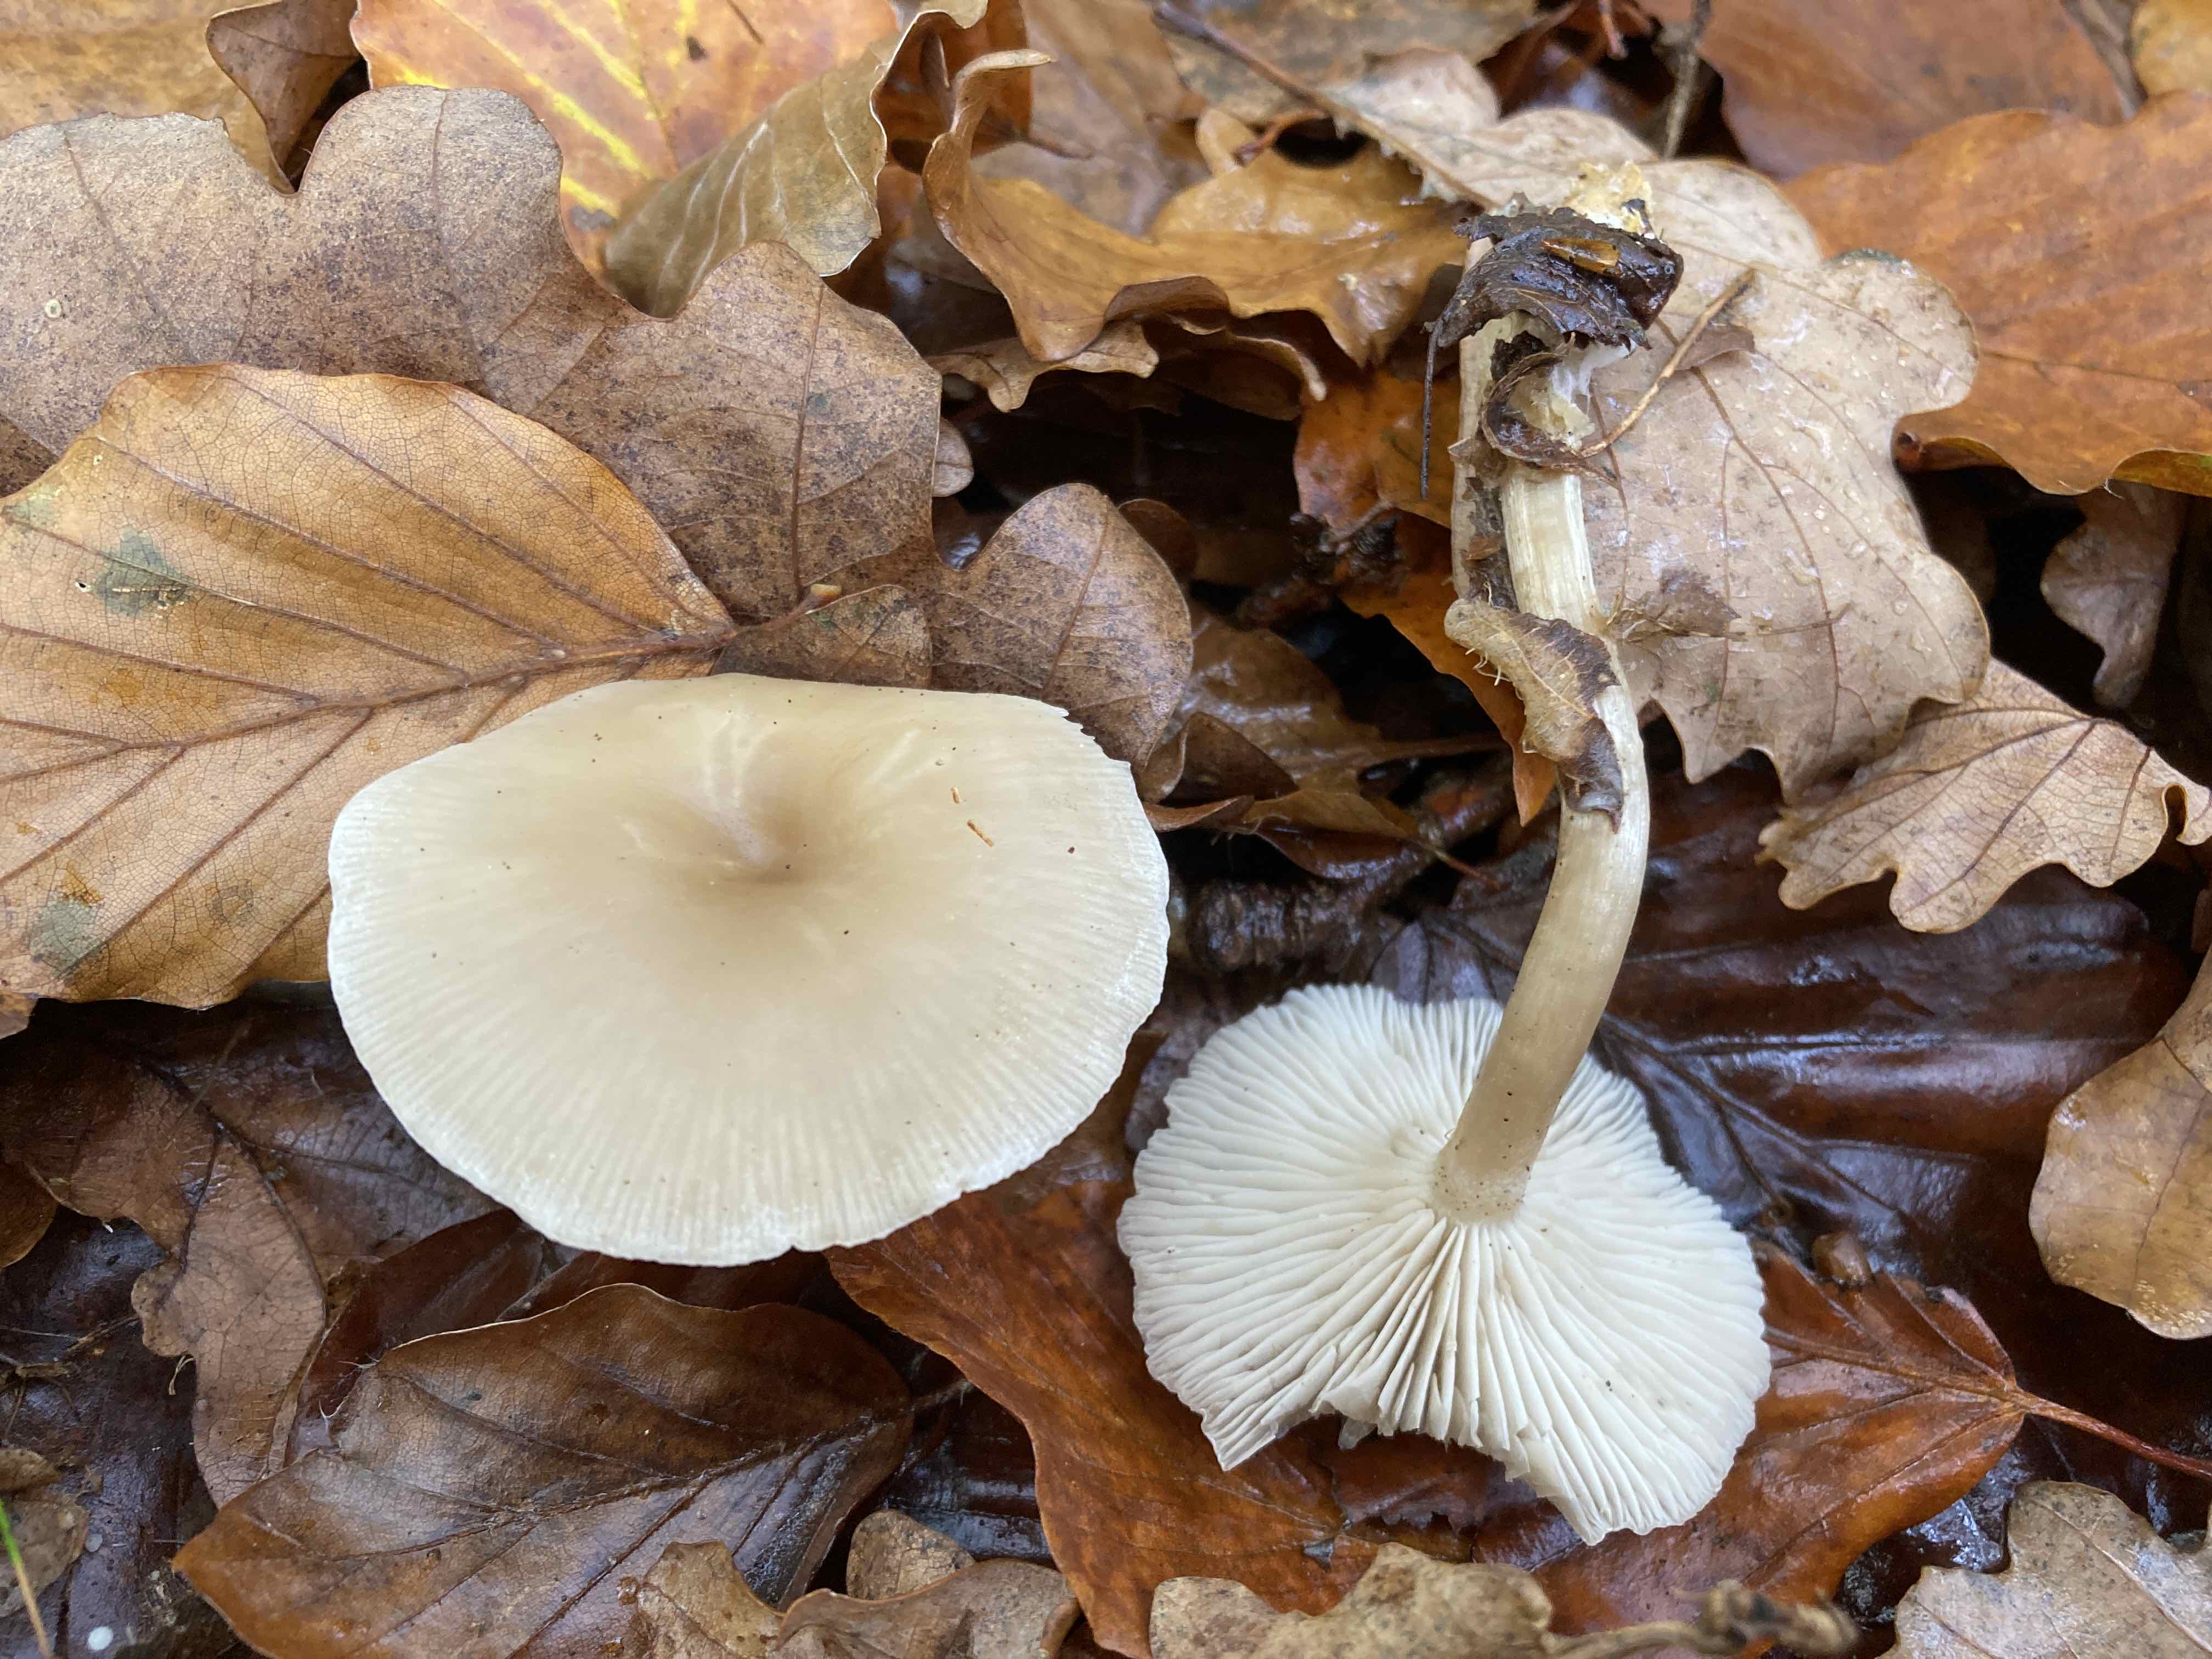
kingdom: Fungi
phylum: Basidiomycota
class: Agaricomycetes
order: Agaricales
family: Tricholomataceae
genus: Clitocybe
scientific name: Clitocybe
